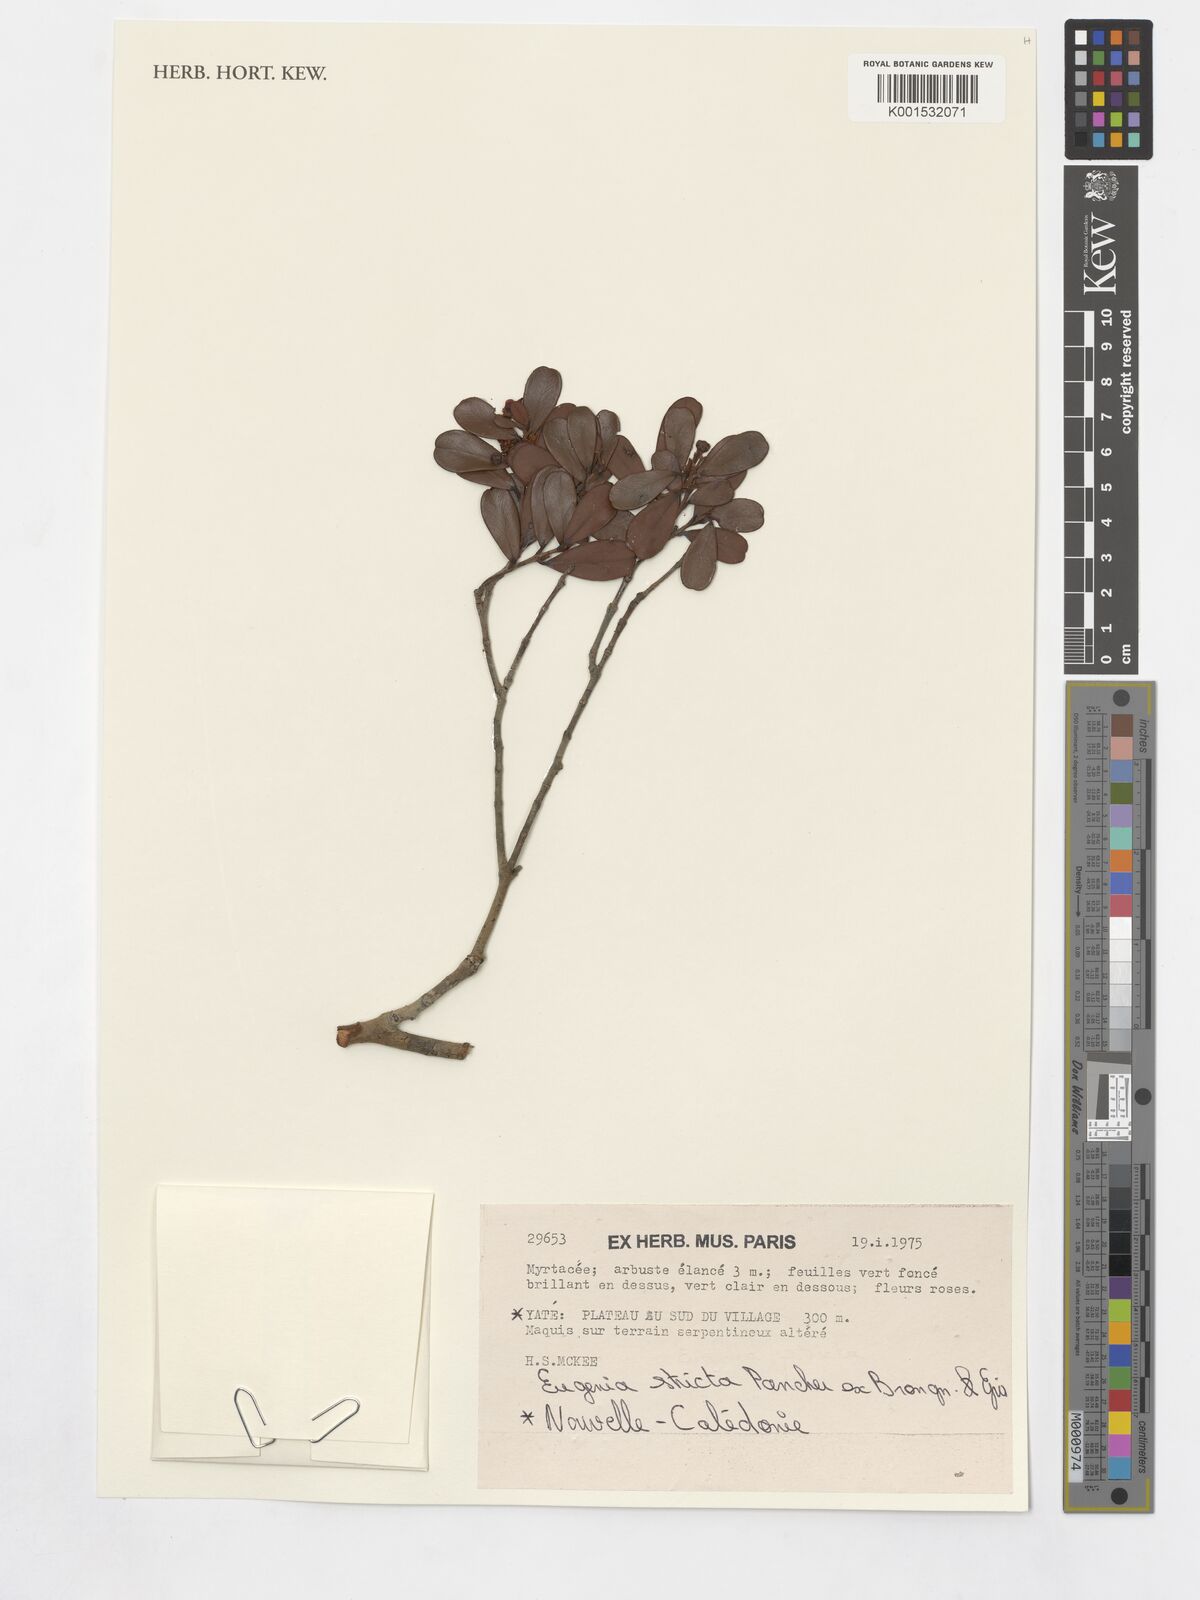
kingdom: Plantae
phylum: Tracheophyta
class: Magnoliopsida
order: Myrtales
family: Myrtaceae
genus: Austromyrtus
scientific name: Austromyrtus stricta
